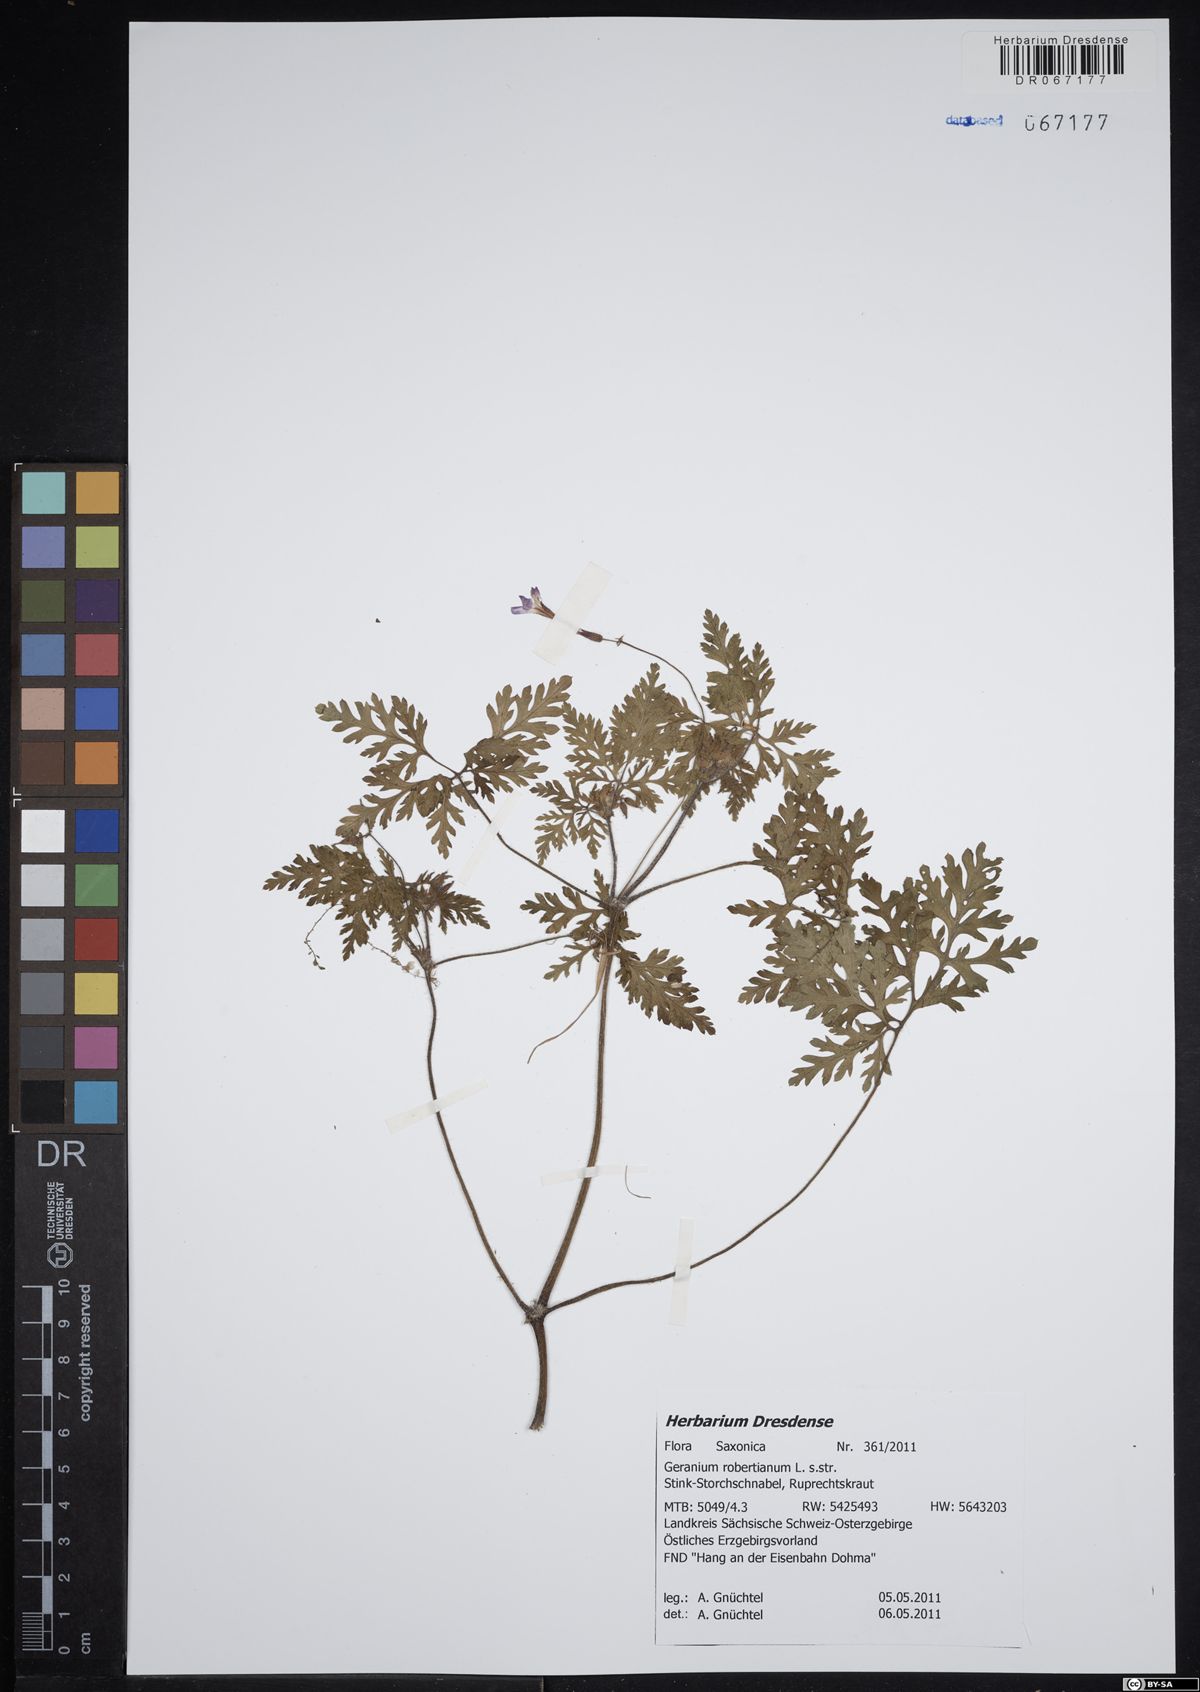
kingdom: Plantae
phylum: Tracheophyta
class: Magnoliopsida
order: Geraniales
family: Geraniaceae
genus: Geranium
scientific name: Geranium robertianum
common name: Herb-robert
